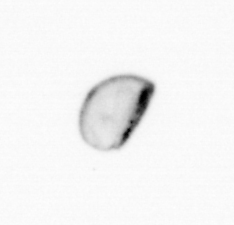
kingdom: Chromista
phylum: Ochrophyta
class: Bacillariophyceae
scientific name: Bacillariophyceae
